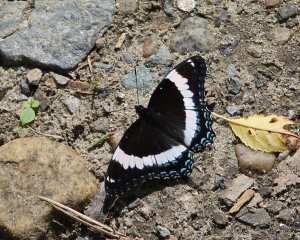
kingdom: Animalia
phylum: Arthropoda
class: Insecta
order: Lepidoptera
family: Nymphalidae
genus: Limenitis
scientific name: Limenitis arthemis
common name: Red-spotted Admiral
